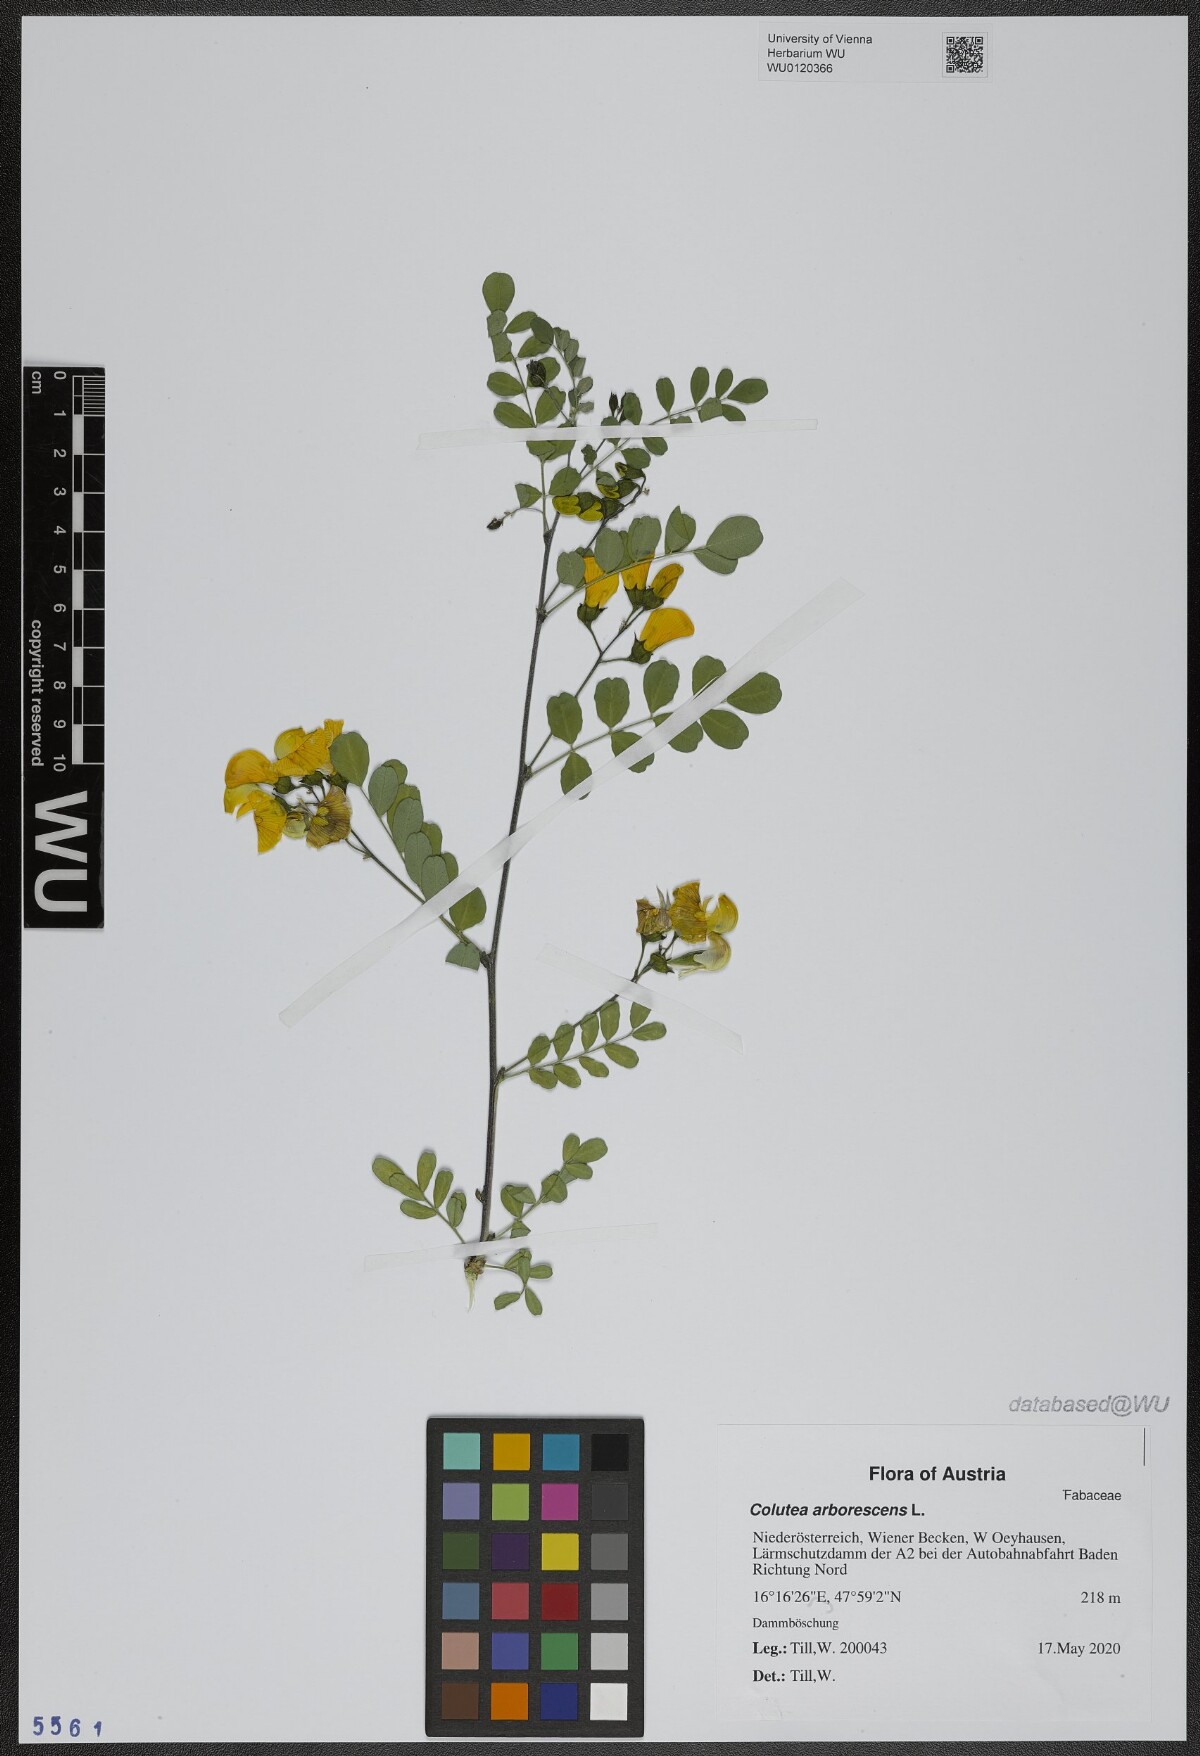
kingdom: Plantae
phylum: Tracheophyta
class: Magnoliopsida
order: Fabales
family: Fabaceae
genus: Colutea
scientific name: Colutea arborescens
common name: Bladder-senna
